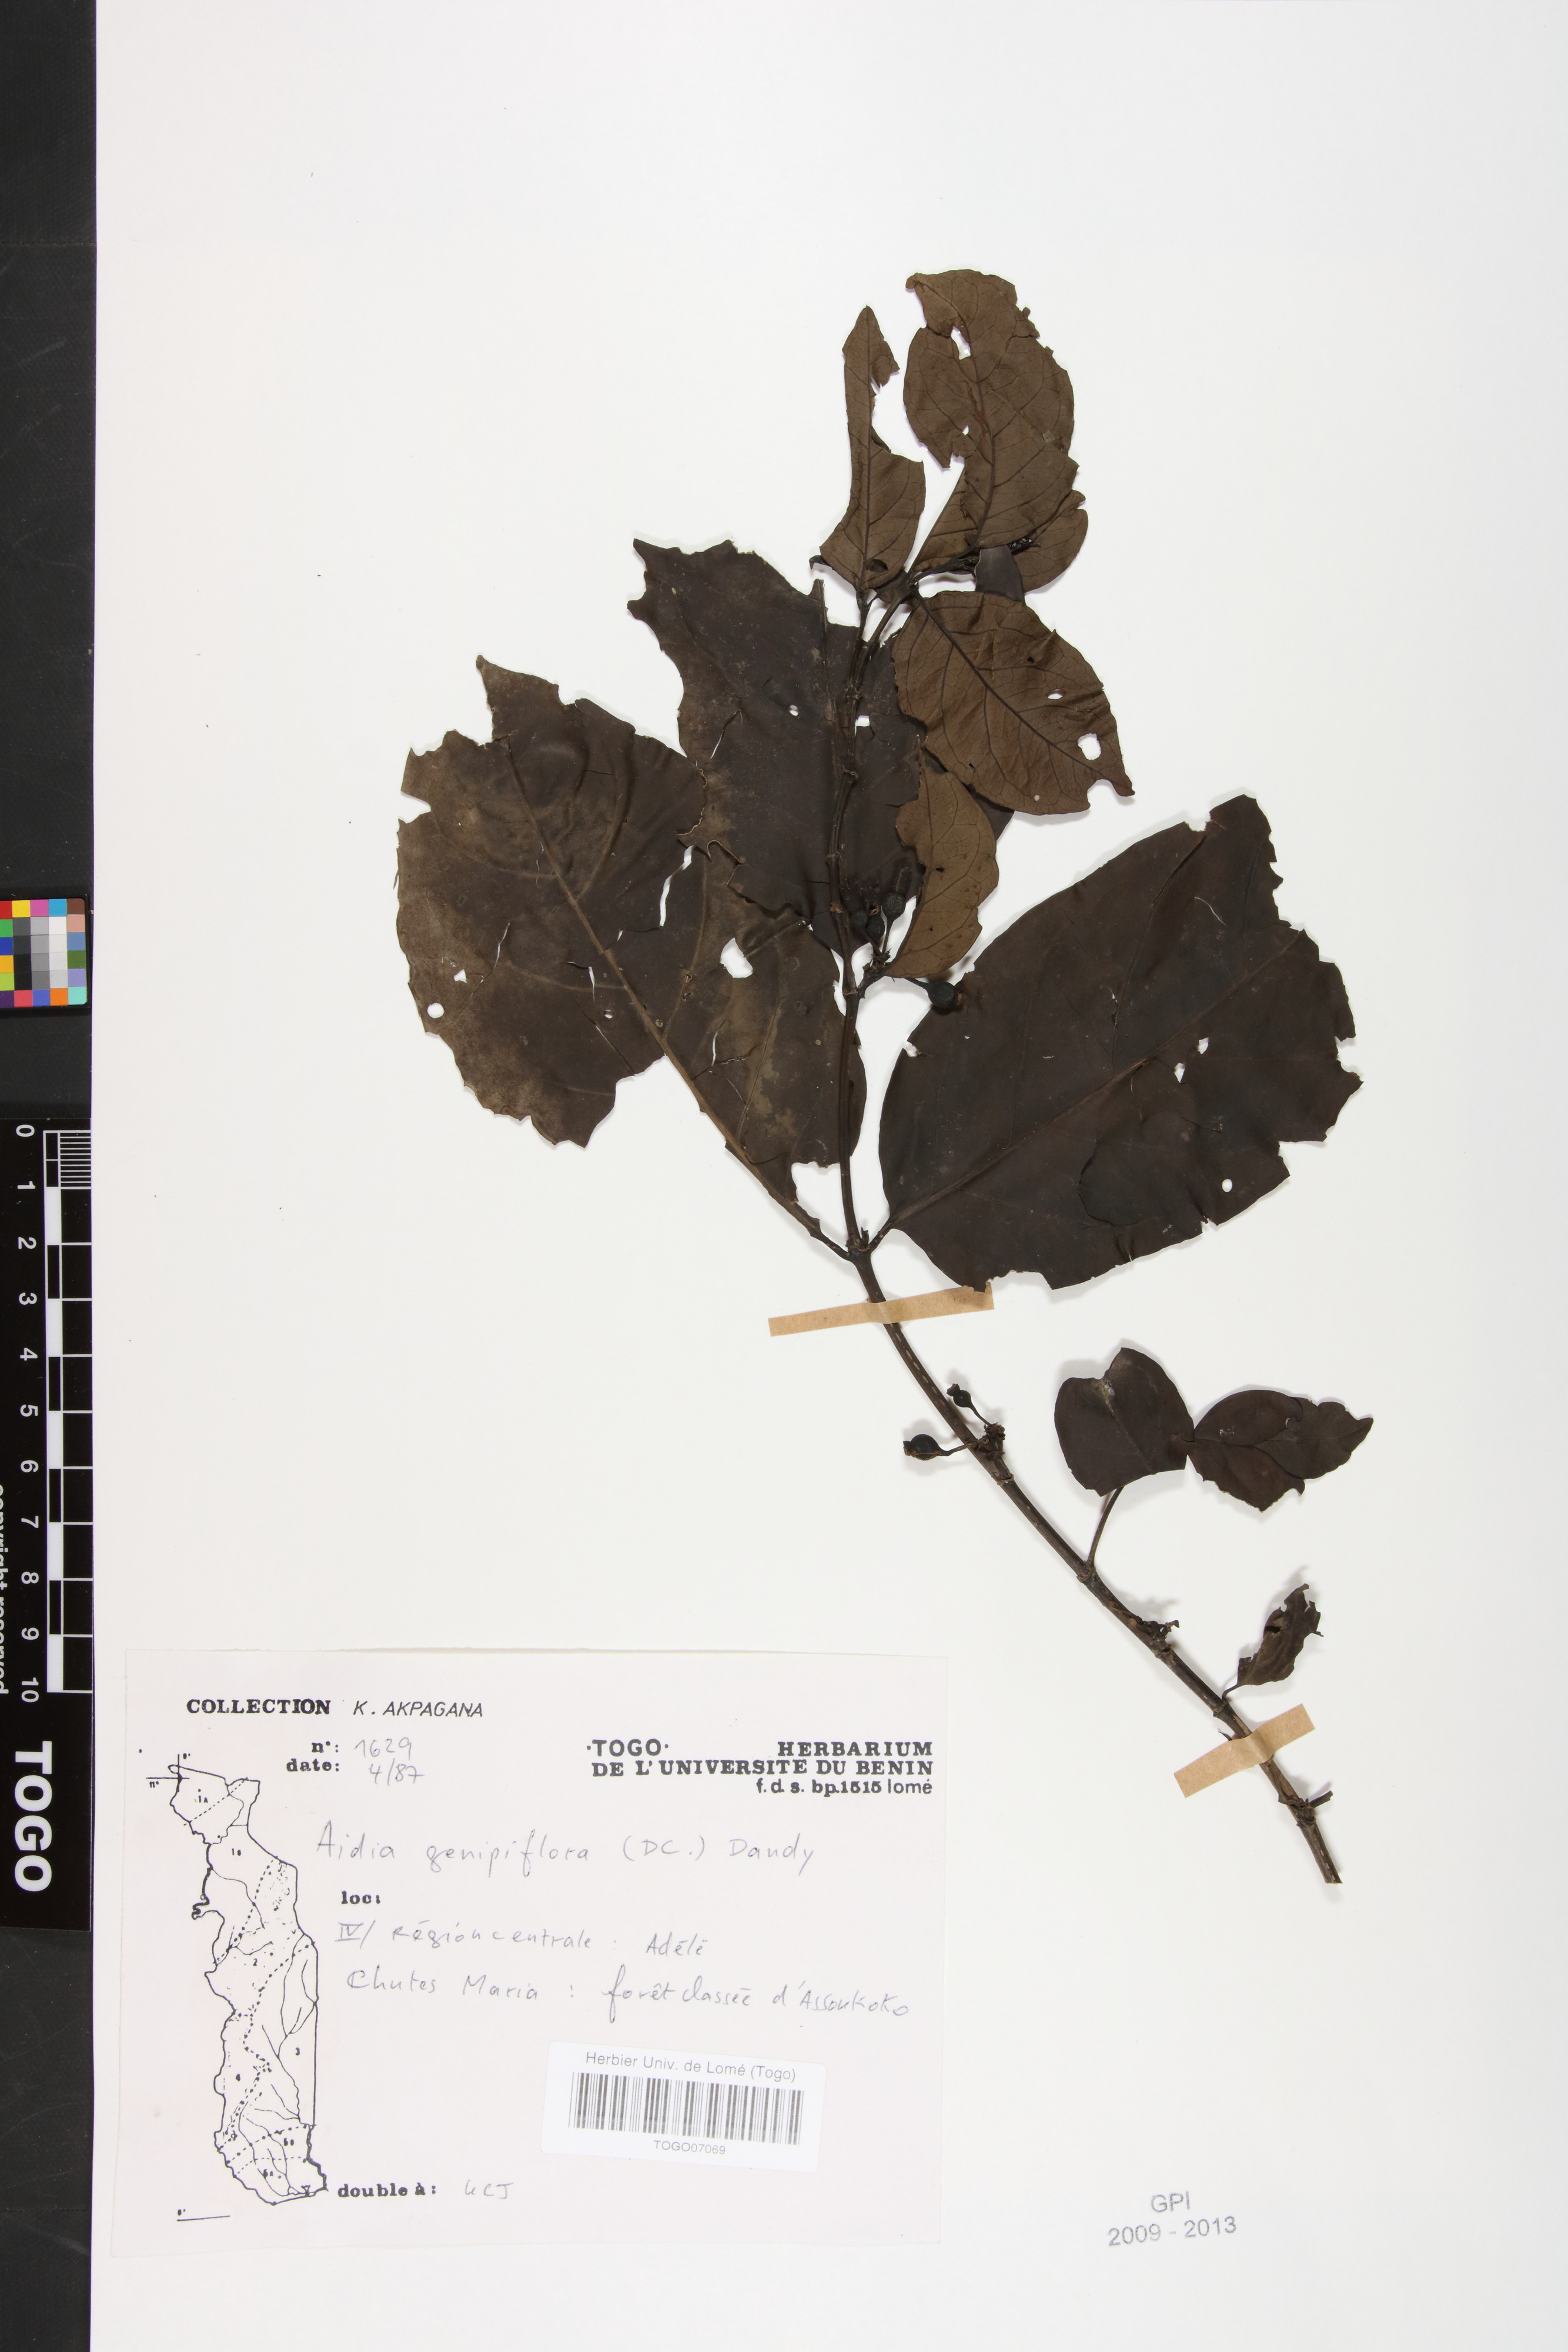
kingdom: Plantae
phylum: Tracheophyta
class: Magnoliopsida
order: Gentianales
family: Rubiaceae
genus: Aidia
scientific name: Aidia genipiflora
